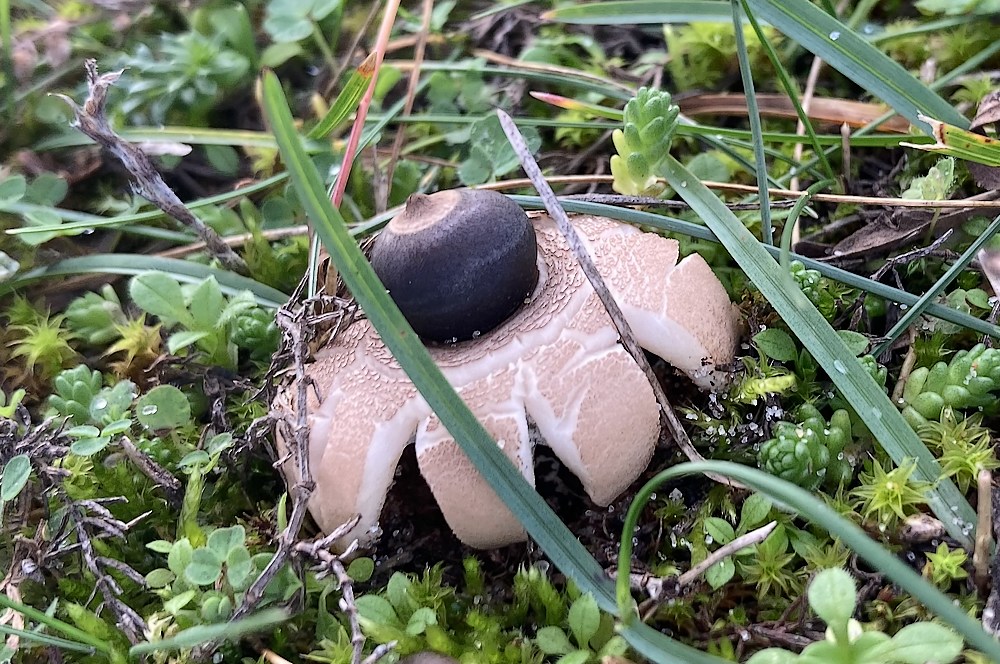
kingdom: Fungi
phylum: Basidiomycota
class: Agaricomycetes
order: Geastrales
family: Geastraceae
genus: Geastrum
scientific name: Geastrum minimum
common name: liden stjernebold
